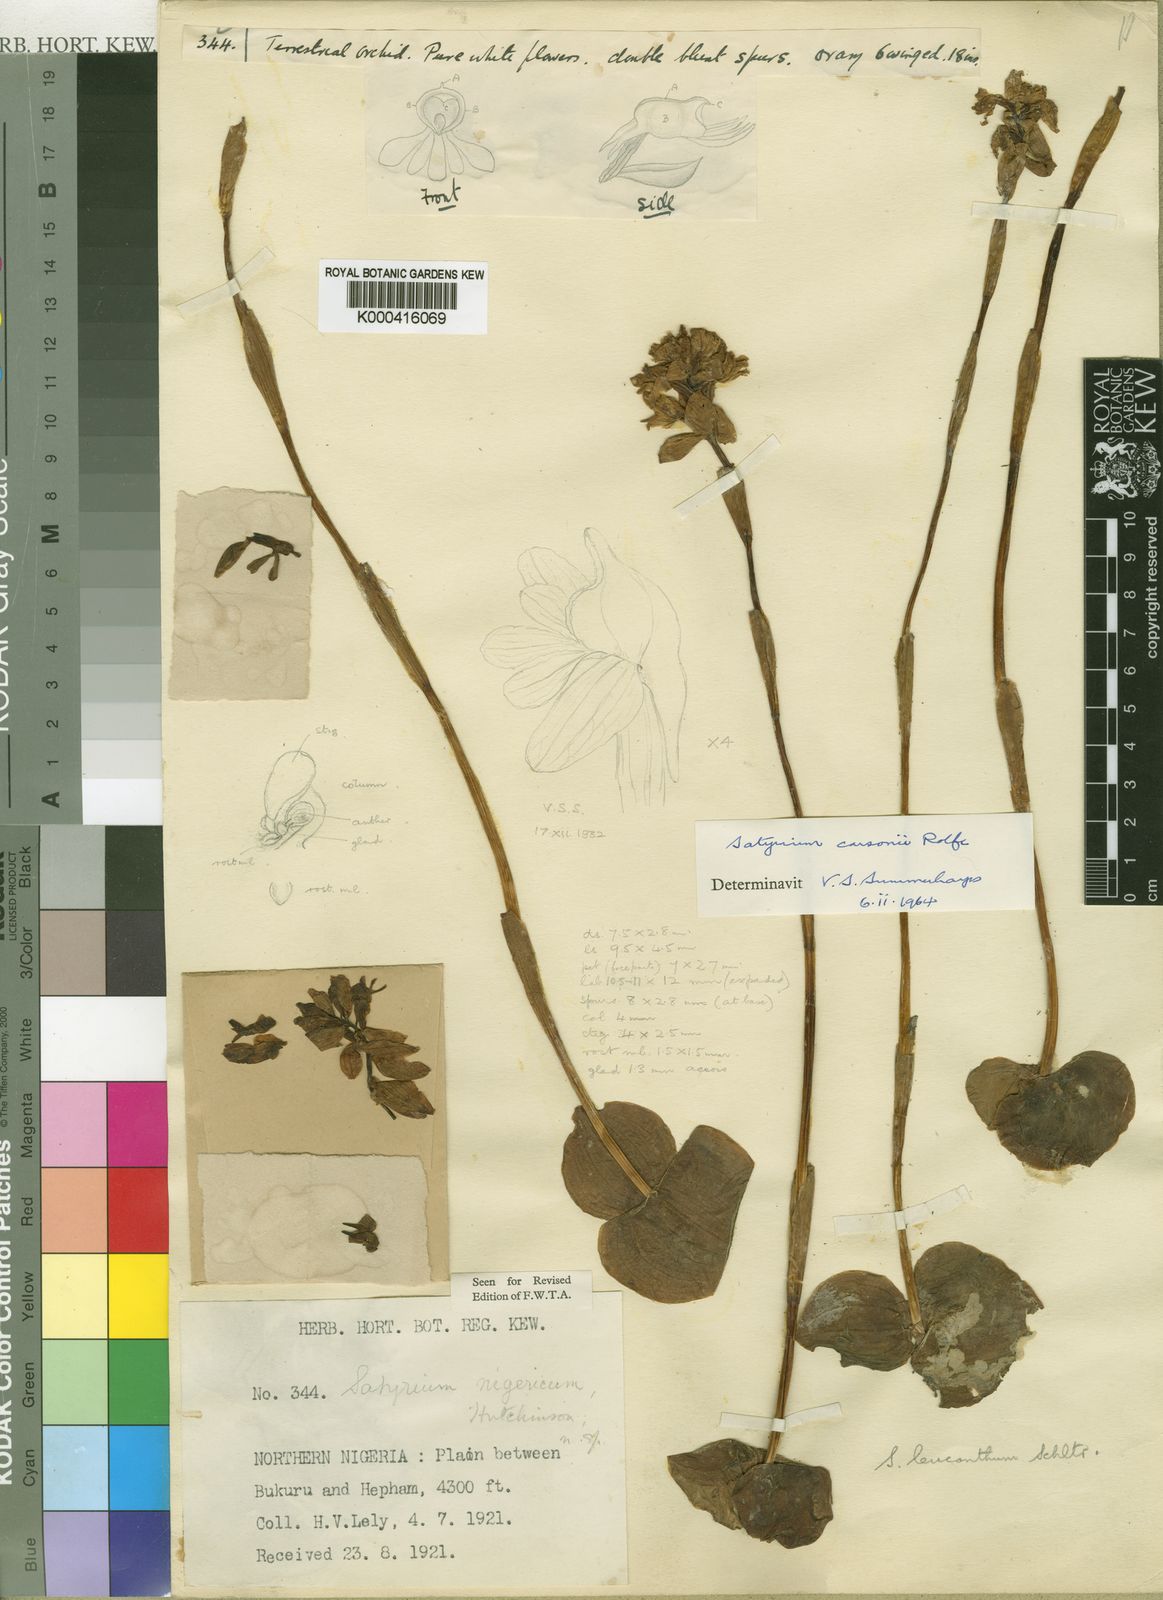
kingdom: Plantae
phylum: Tracheophyta
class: Liliopsida
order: Asparagales
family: Orchidaceae
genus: Satyrium
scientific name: Satyrium carsonii
